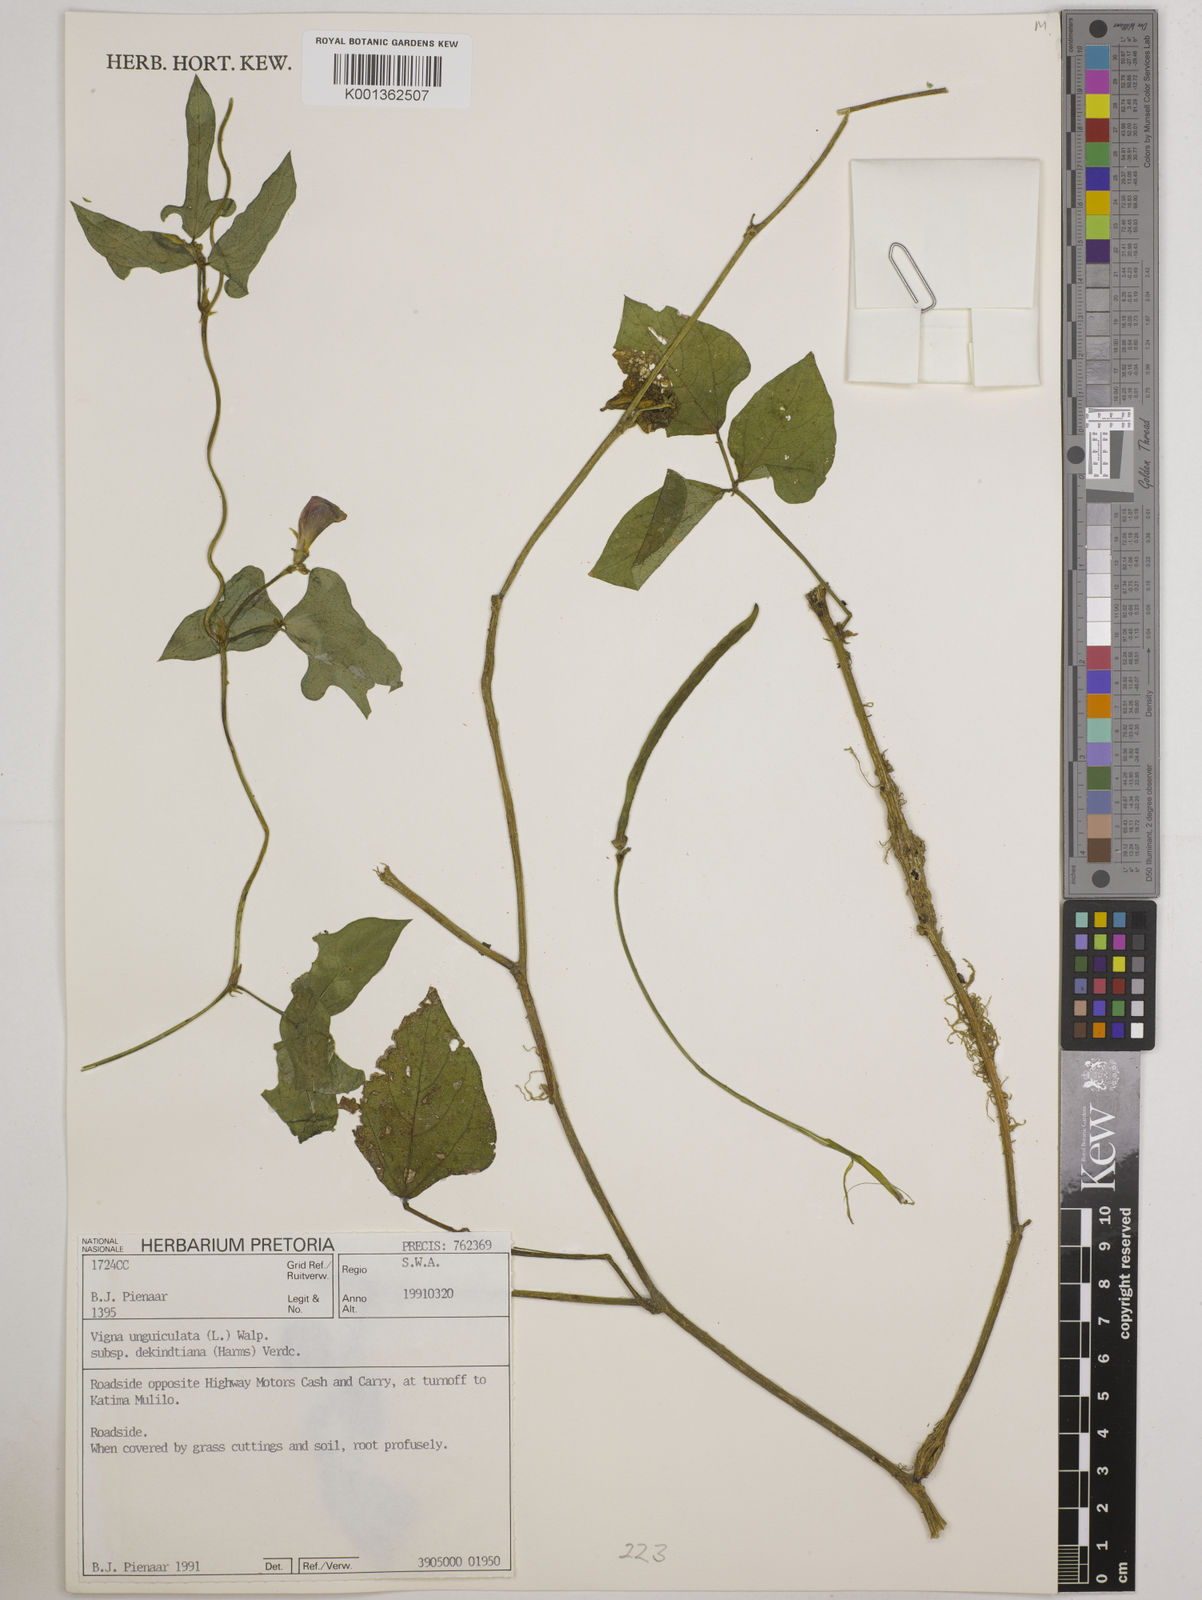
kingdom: Plantae
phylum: Tracheophyta
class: Magnoliopsida
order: Fabales
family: Fabaceae
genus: Vigna
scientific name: Vigna
